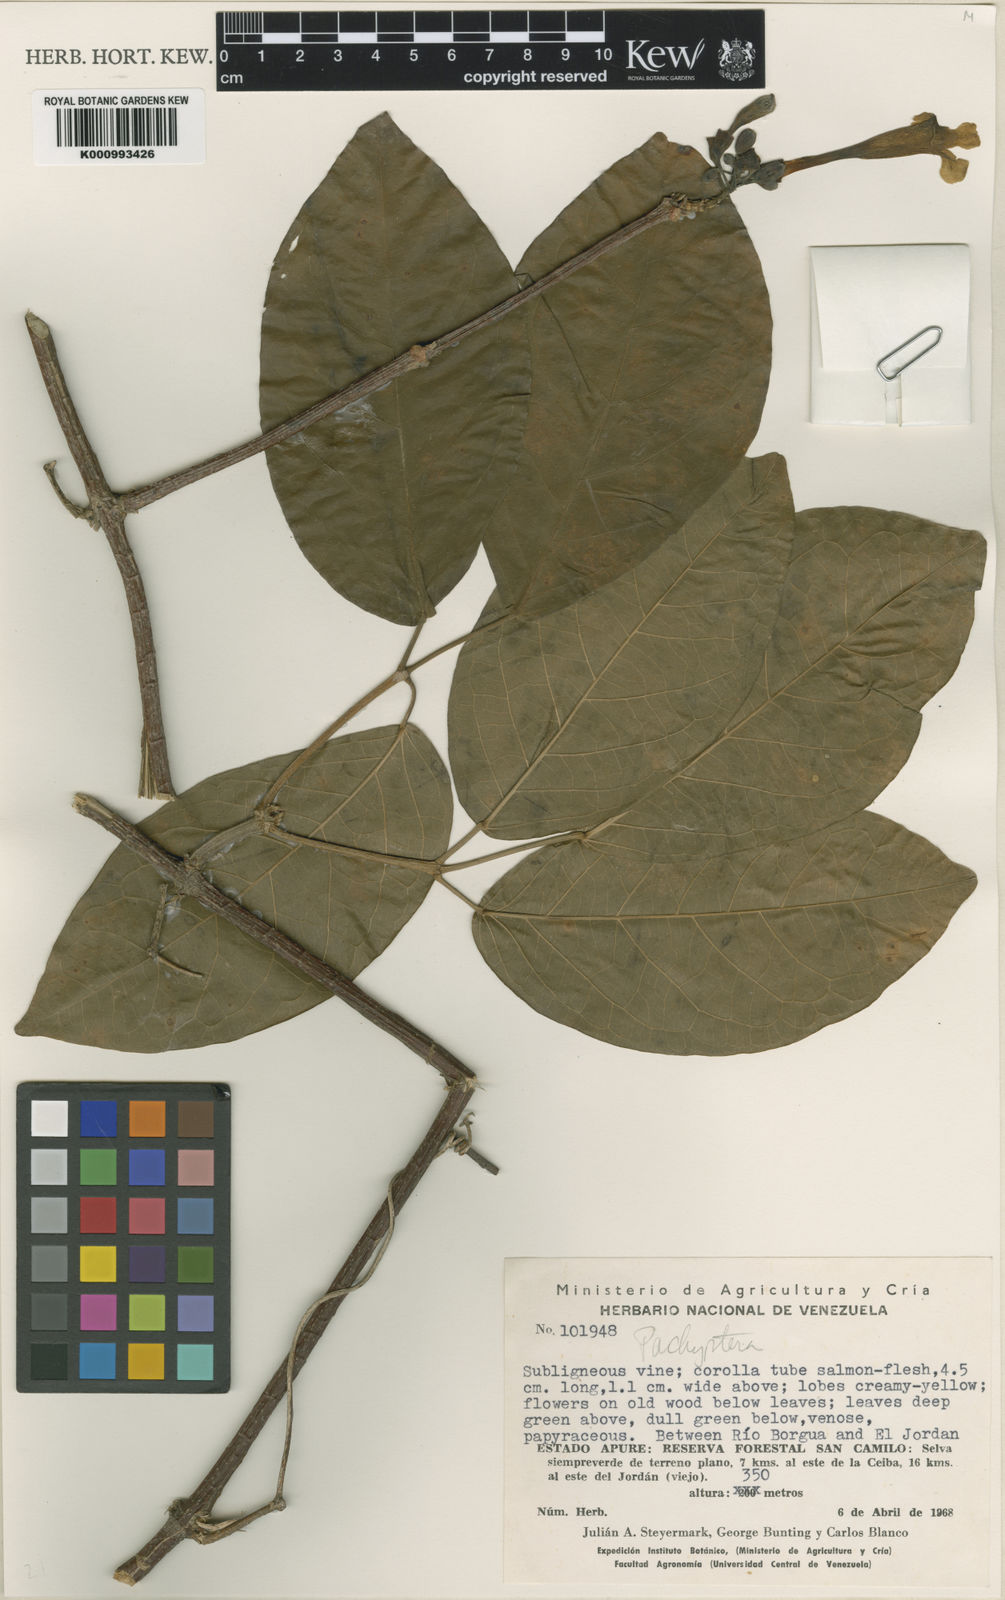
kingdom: Plantae
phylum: Tracheophyta
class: Magnoliopsida
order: Lamiales
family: Bignoniaceae
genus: Pachyptera
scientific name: Pachyptera incarnata
